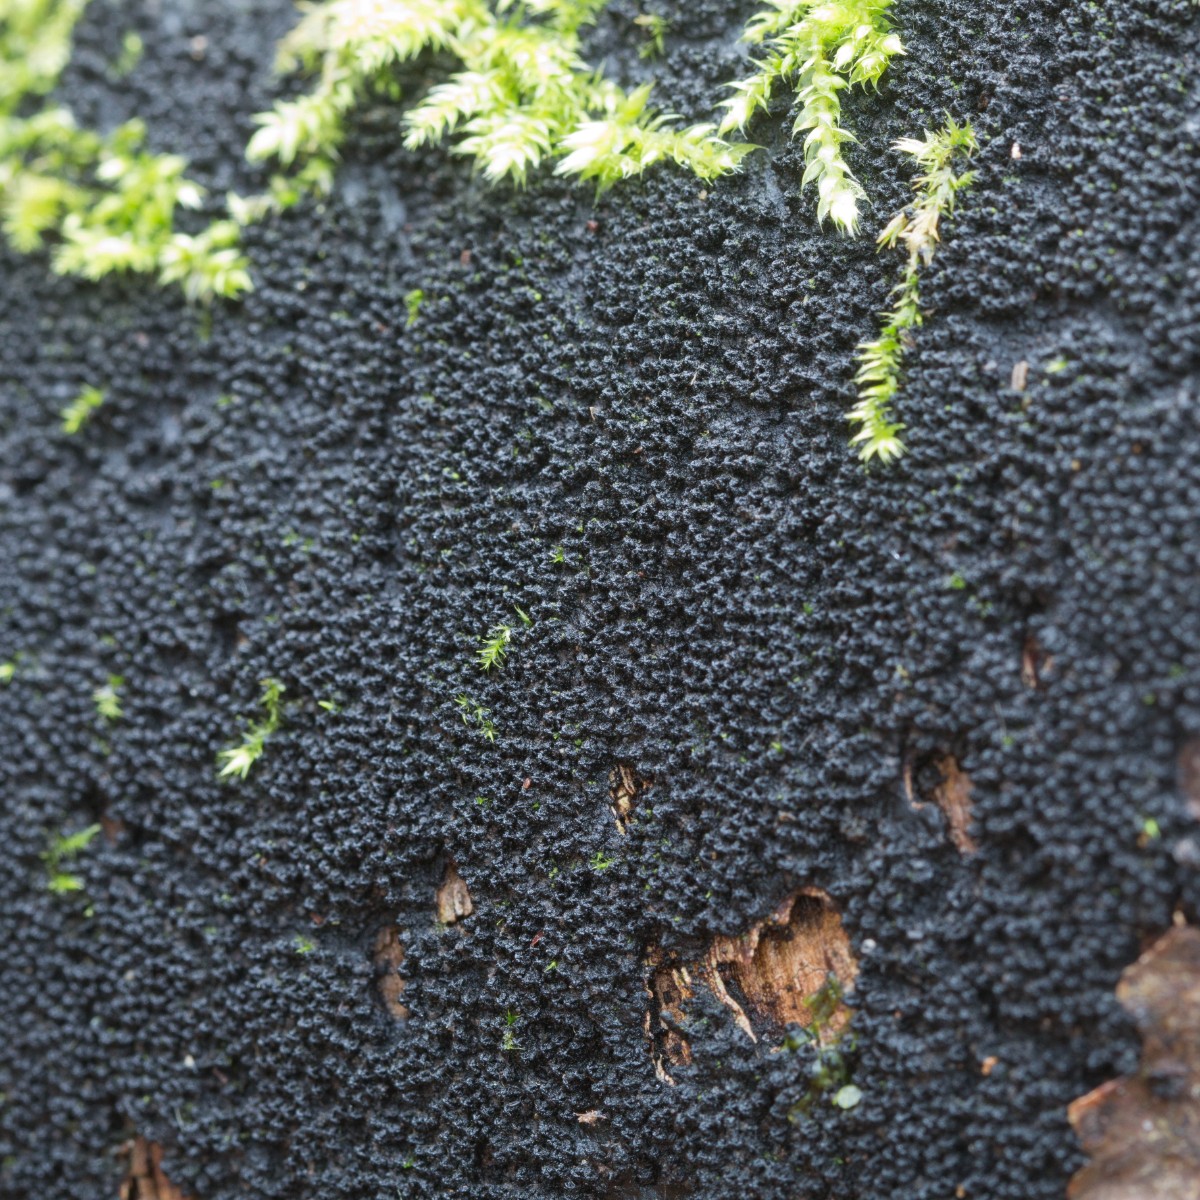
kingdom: Fungi
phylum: Ascomycota
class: Sordariomycetes
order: Xylariales
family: Diatrypaceae
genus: Eutypa
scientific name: Eutypa spinosa
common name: grov kulskorpe
